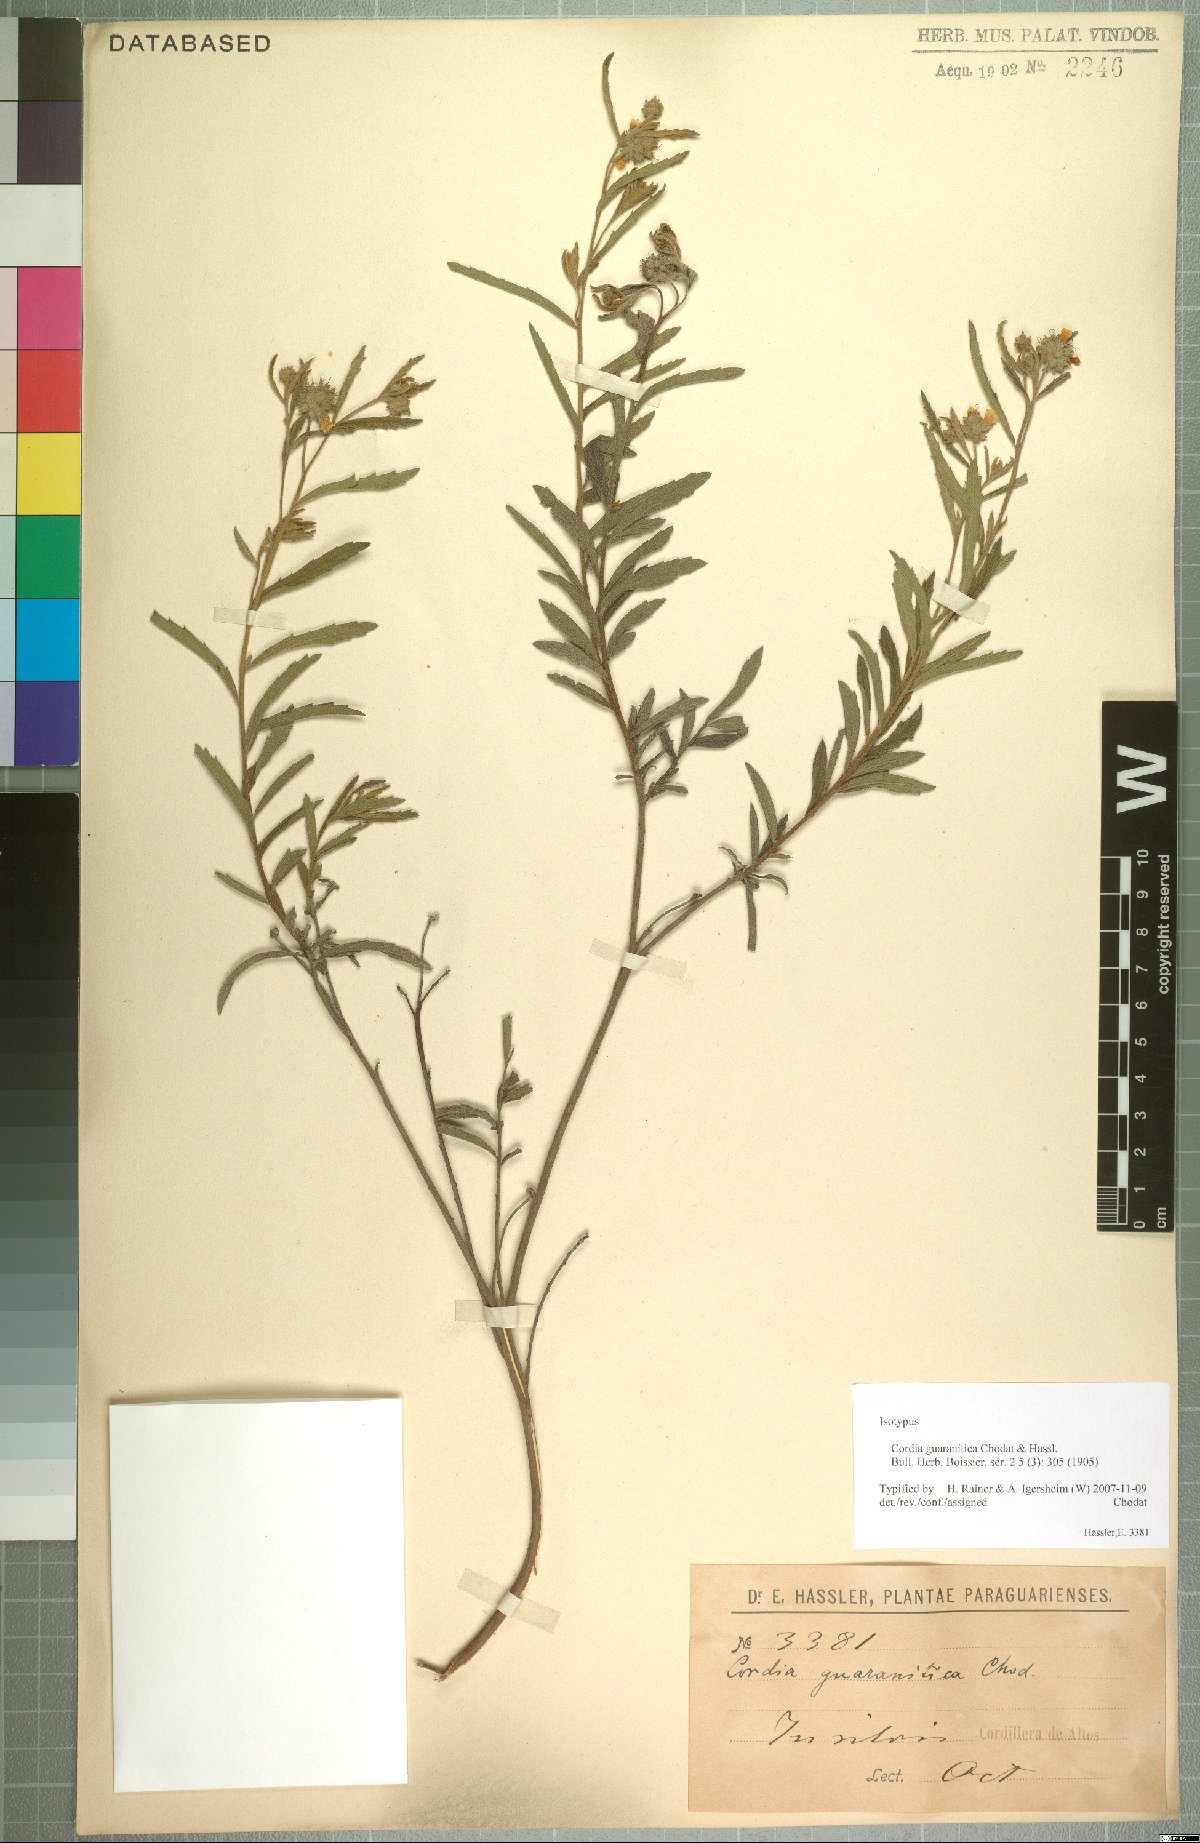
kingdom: Plantae
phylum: Tracheophyta
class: Magnoliopsida
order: Boraginales
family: Cordiaceae
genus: Varronia
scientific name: Varronia guaranitica
